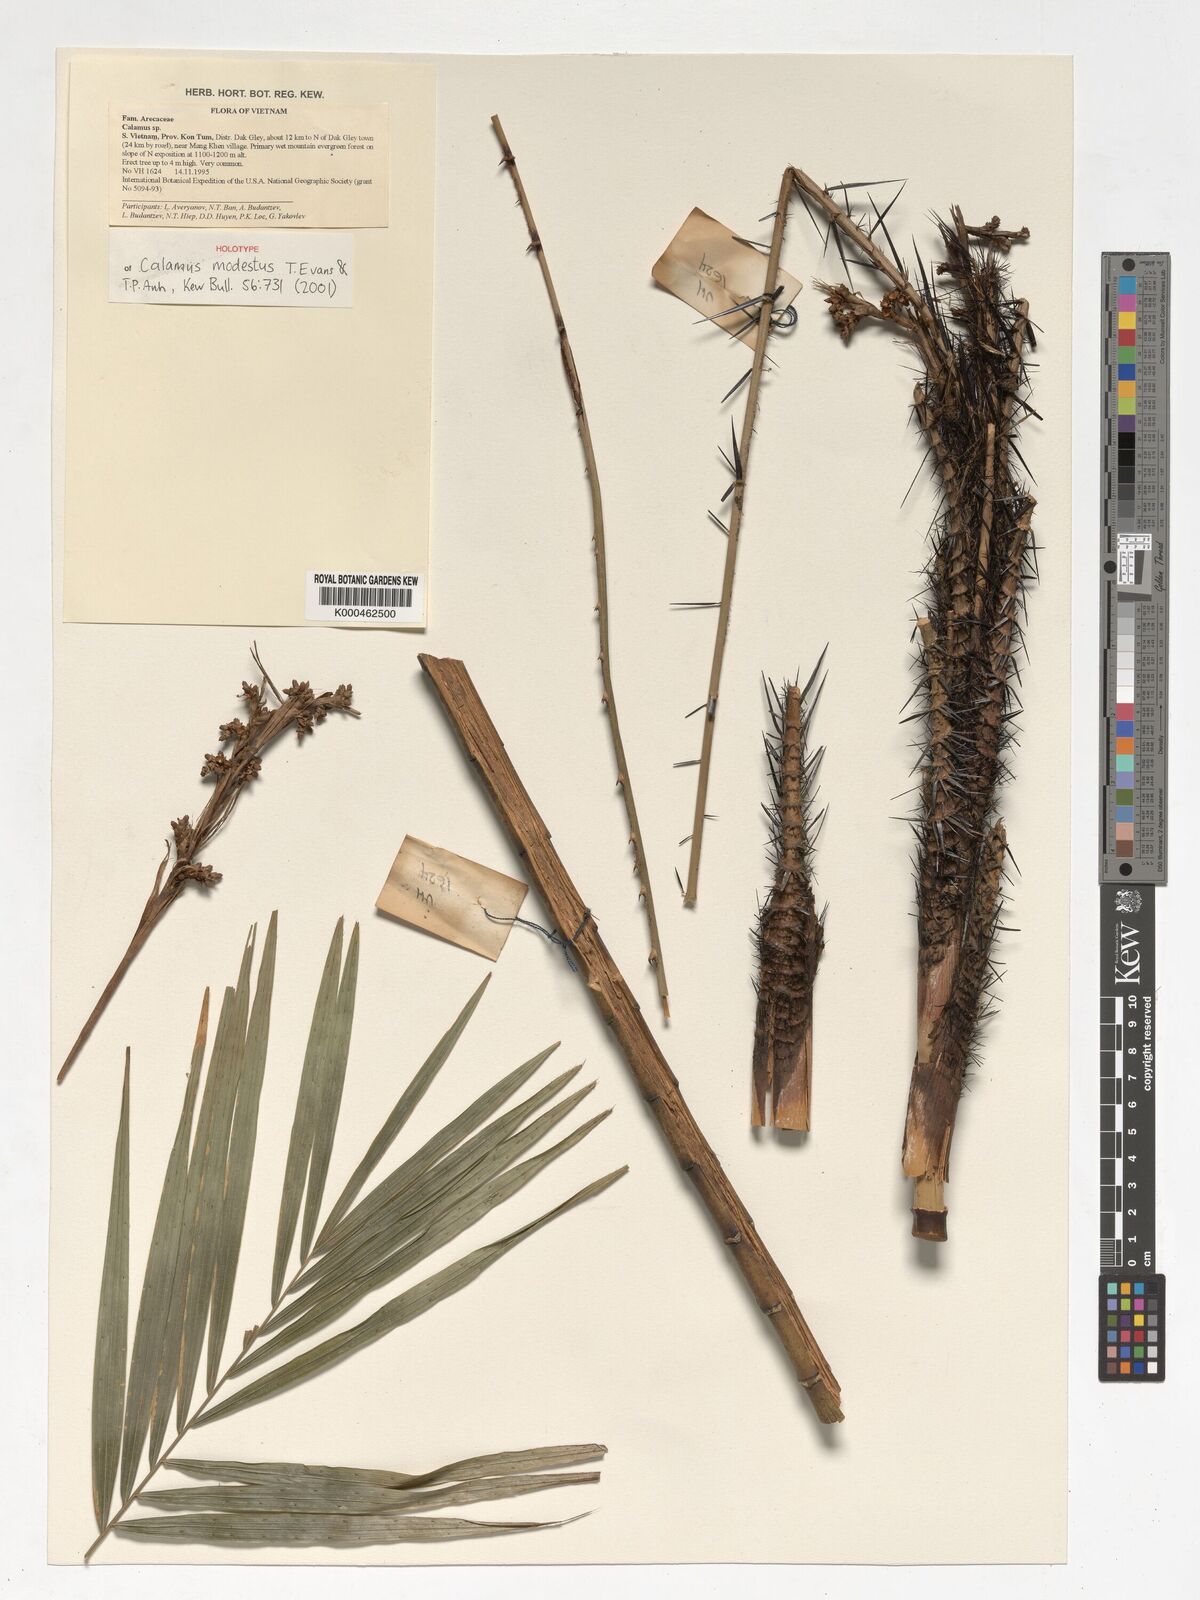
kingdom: Plantae
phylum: Tracheophyta
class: Liliopsida
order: Arecales
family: Arecaceae
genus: Calamus
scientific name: Calamus modestus
